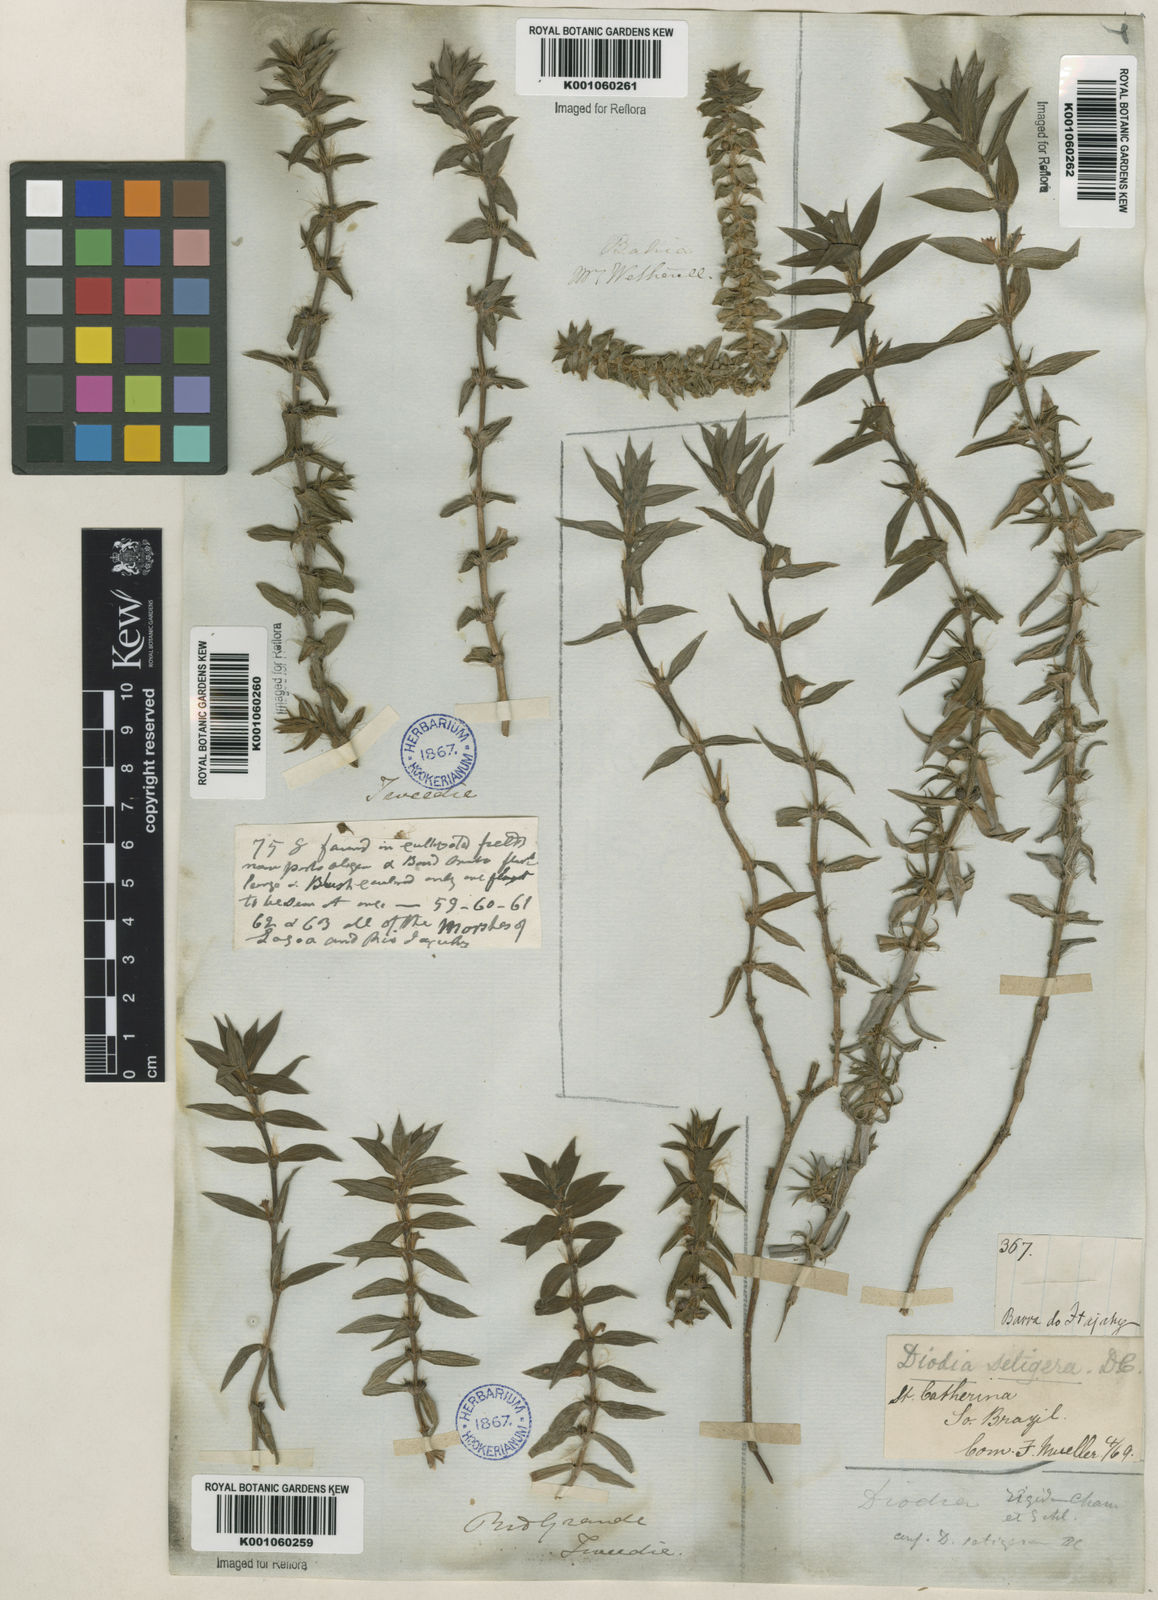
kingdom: Plantae
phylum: Tracheophyta
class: Magnoliopsida
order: Gentianales
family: Rubiaceae
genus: Hexasepalum
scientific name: Hexasepalum apiculatum
